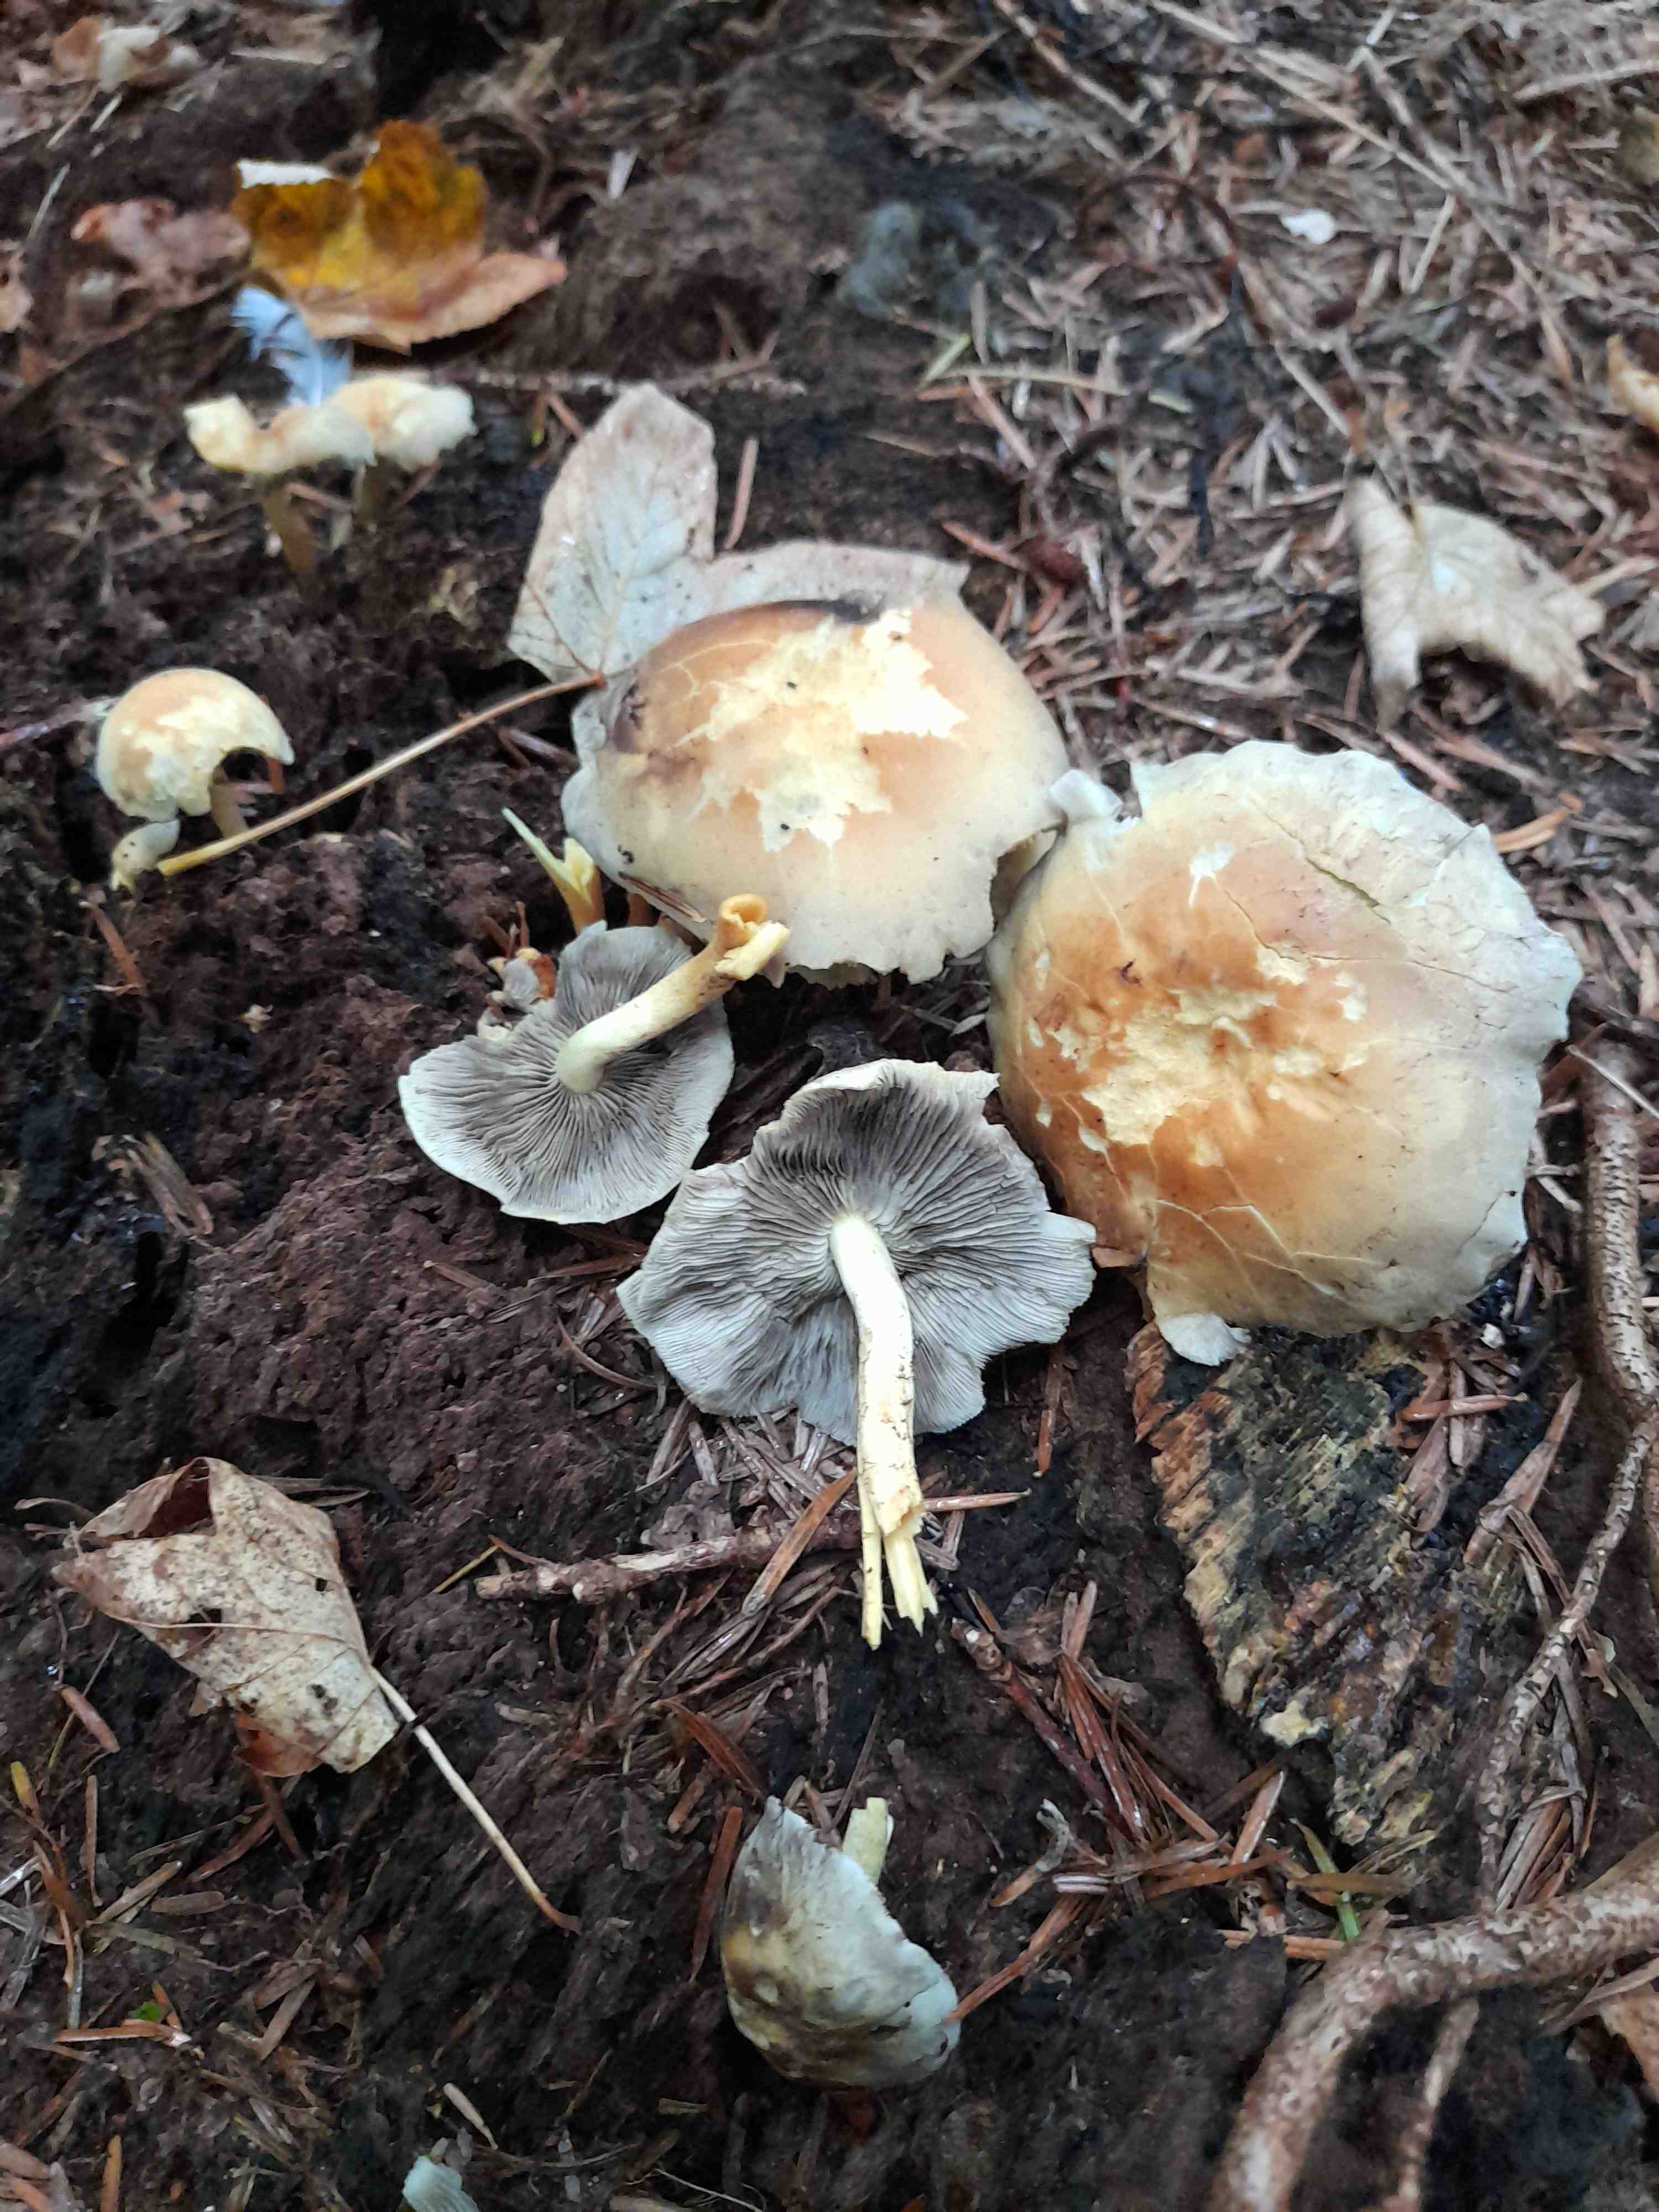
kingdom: Fungi
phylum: Basidiomycota
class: Agaricomycetes
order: Agaricales
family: Strophariaceae
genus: Hypholoma
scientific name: Hypholoma fasciculare
